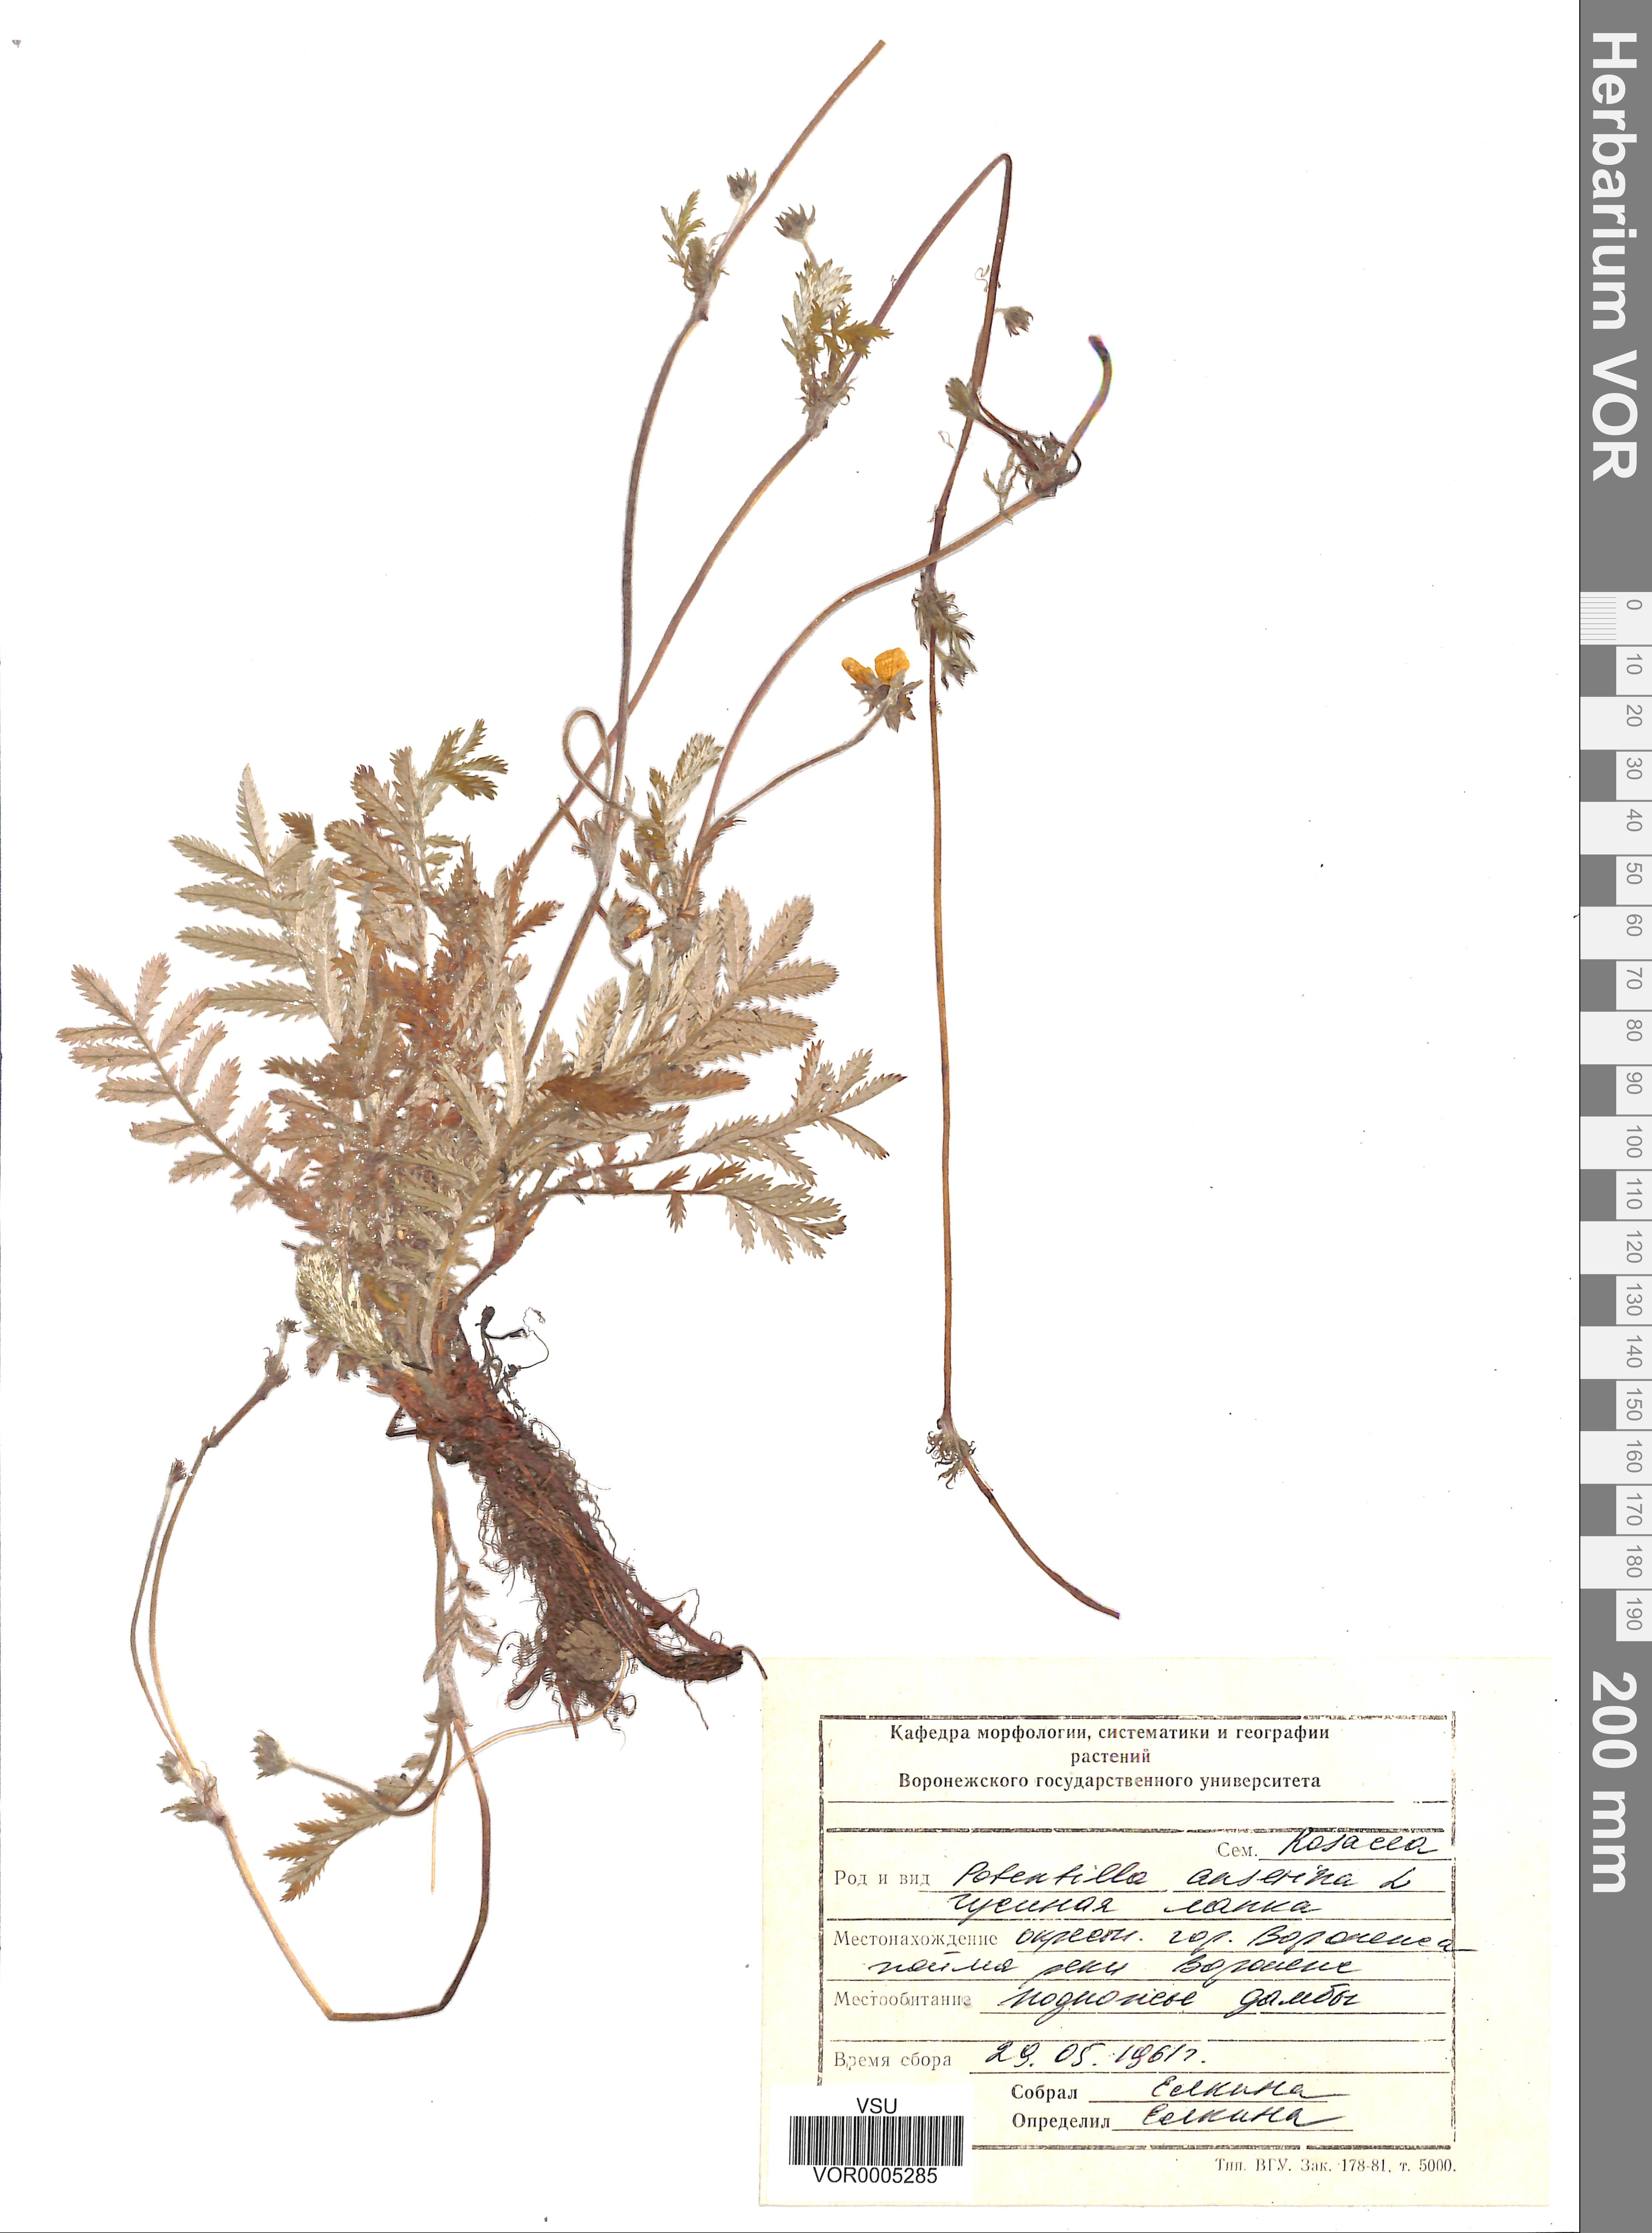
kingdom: Plantae
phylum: Tracheophyta
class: Magnoliopsida
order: Rosales
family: Rosaceae
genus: Argentina
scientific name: Argentina anserina
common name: Common silverweed
